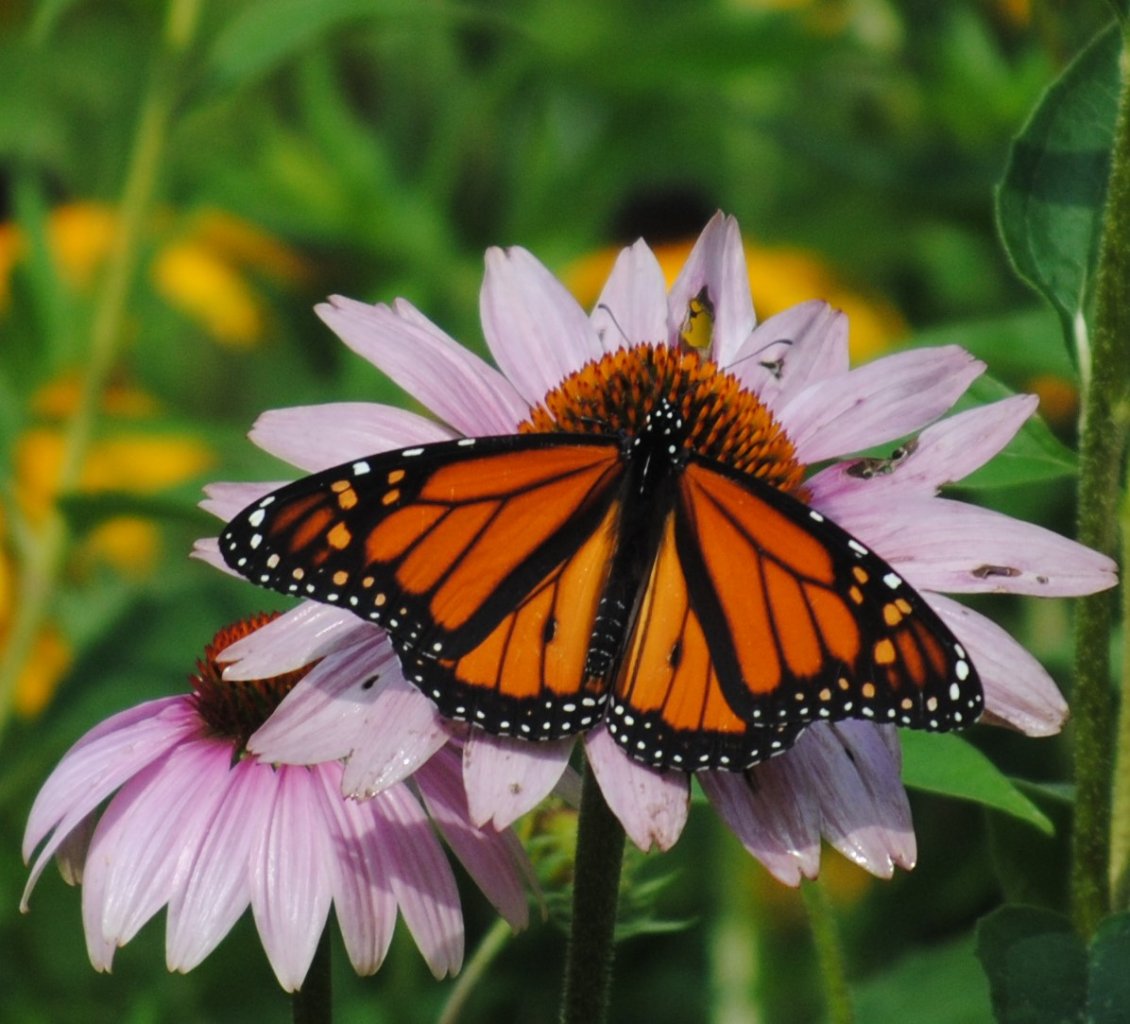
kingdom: Animalia
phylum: Arthropoda
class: Insecta
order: Lepidoptera
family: Nymphalidae
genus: Danaus
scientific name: Danaus plexippus
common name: Monarch
